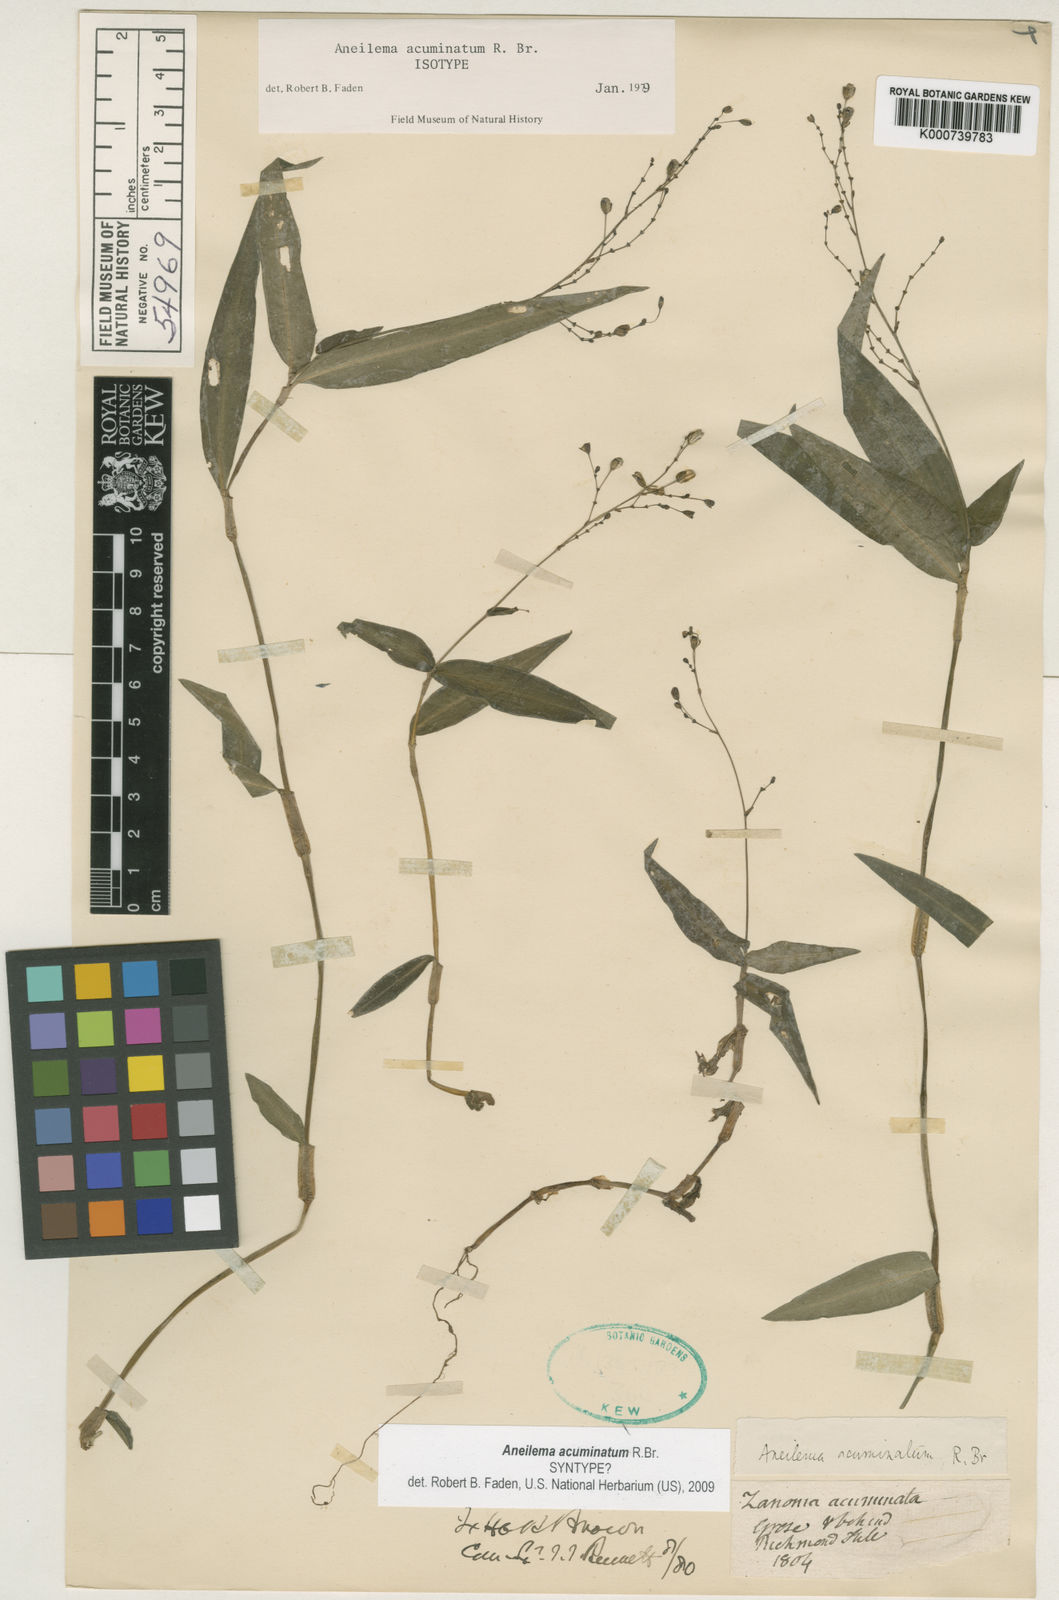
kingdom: Plantae
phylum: Tracheophyta
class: Liliopsida
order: Commelinales
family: Commelinaceae
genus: Aneilema
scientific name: Aneilema acuminatum
